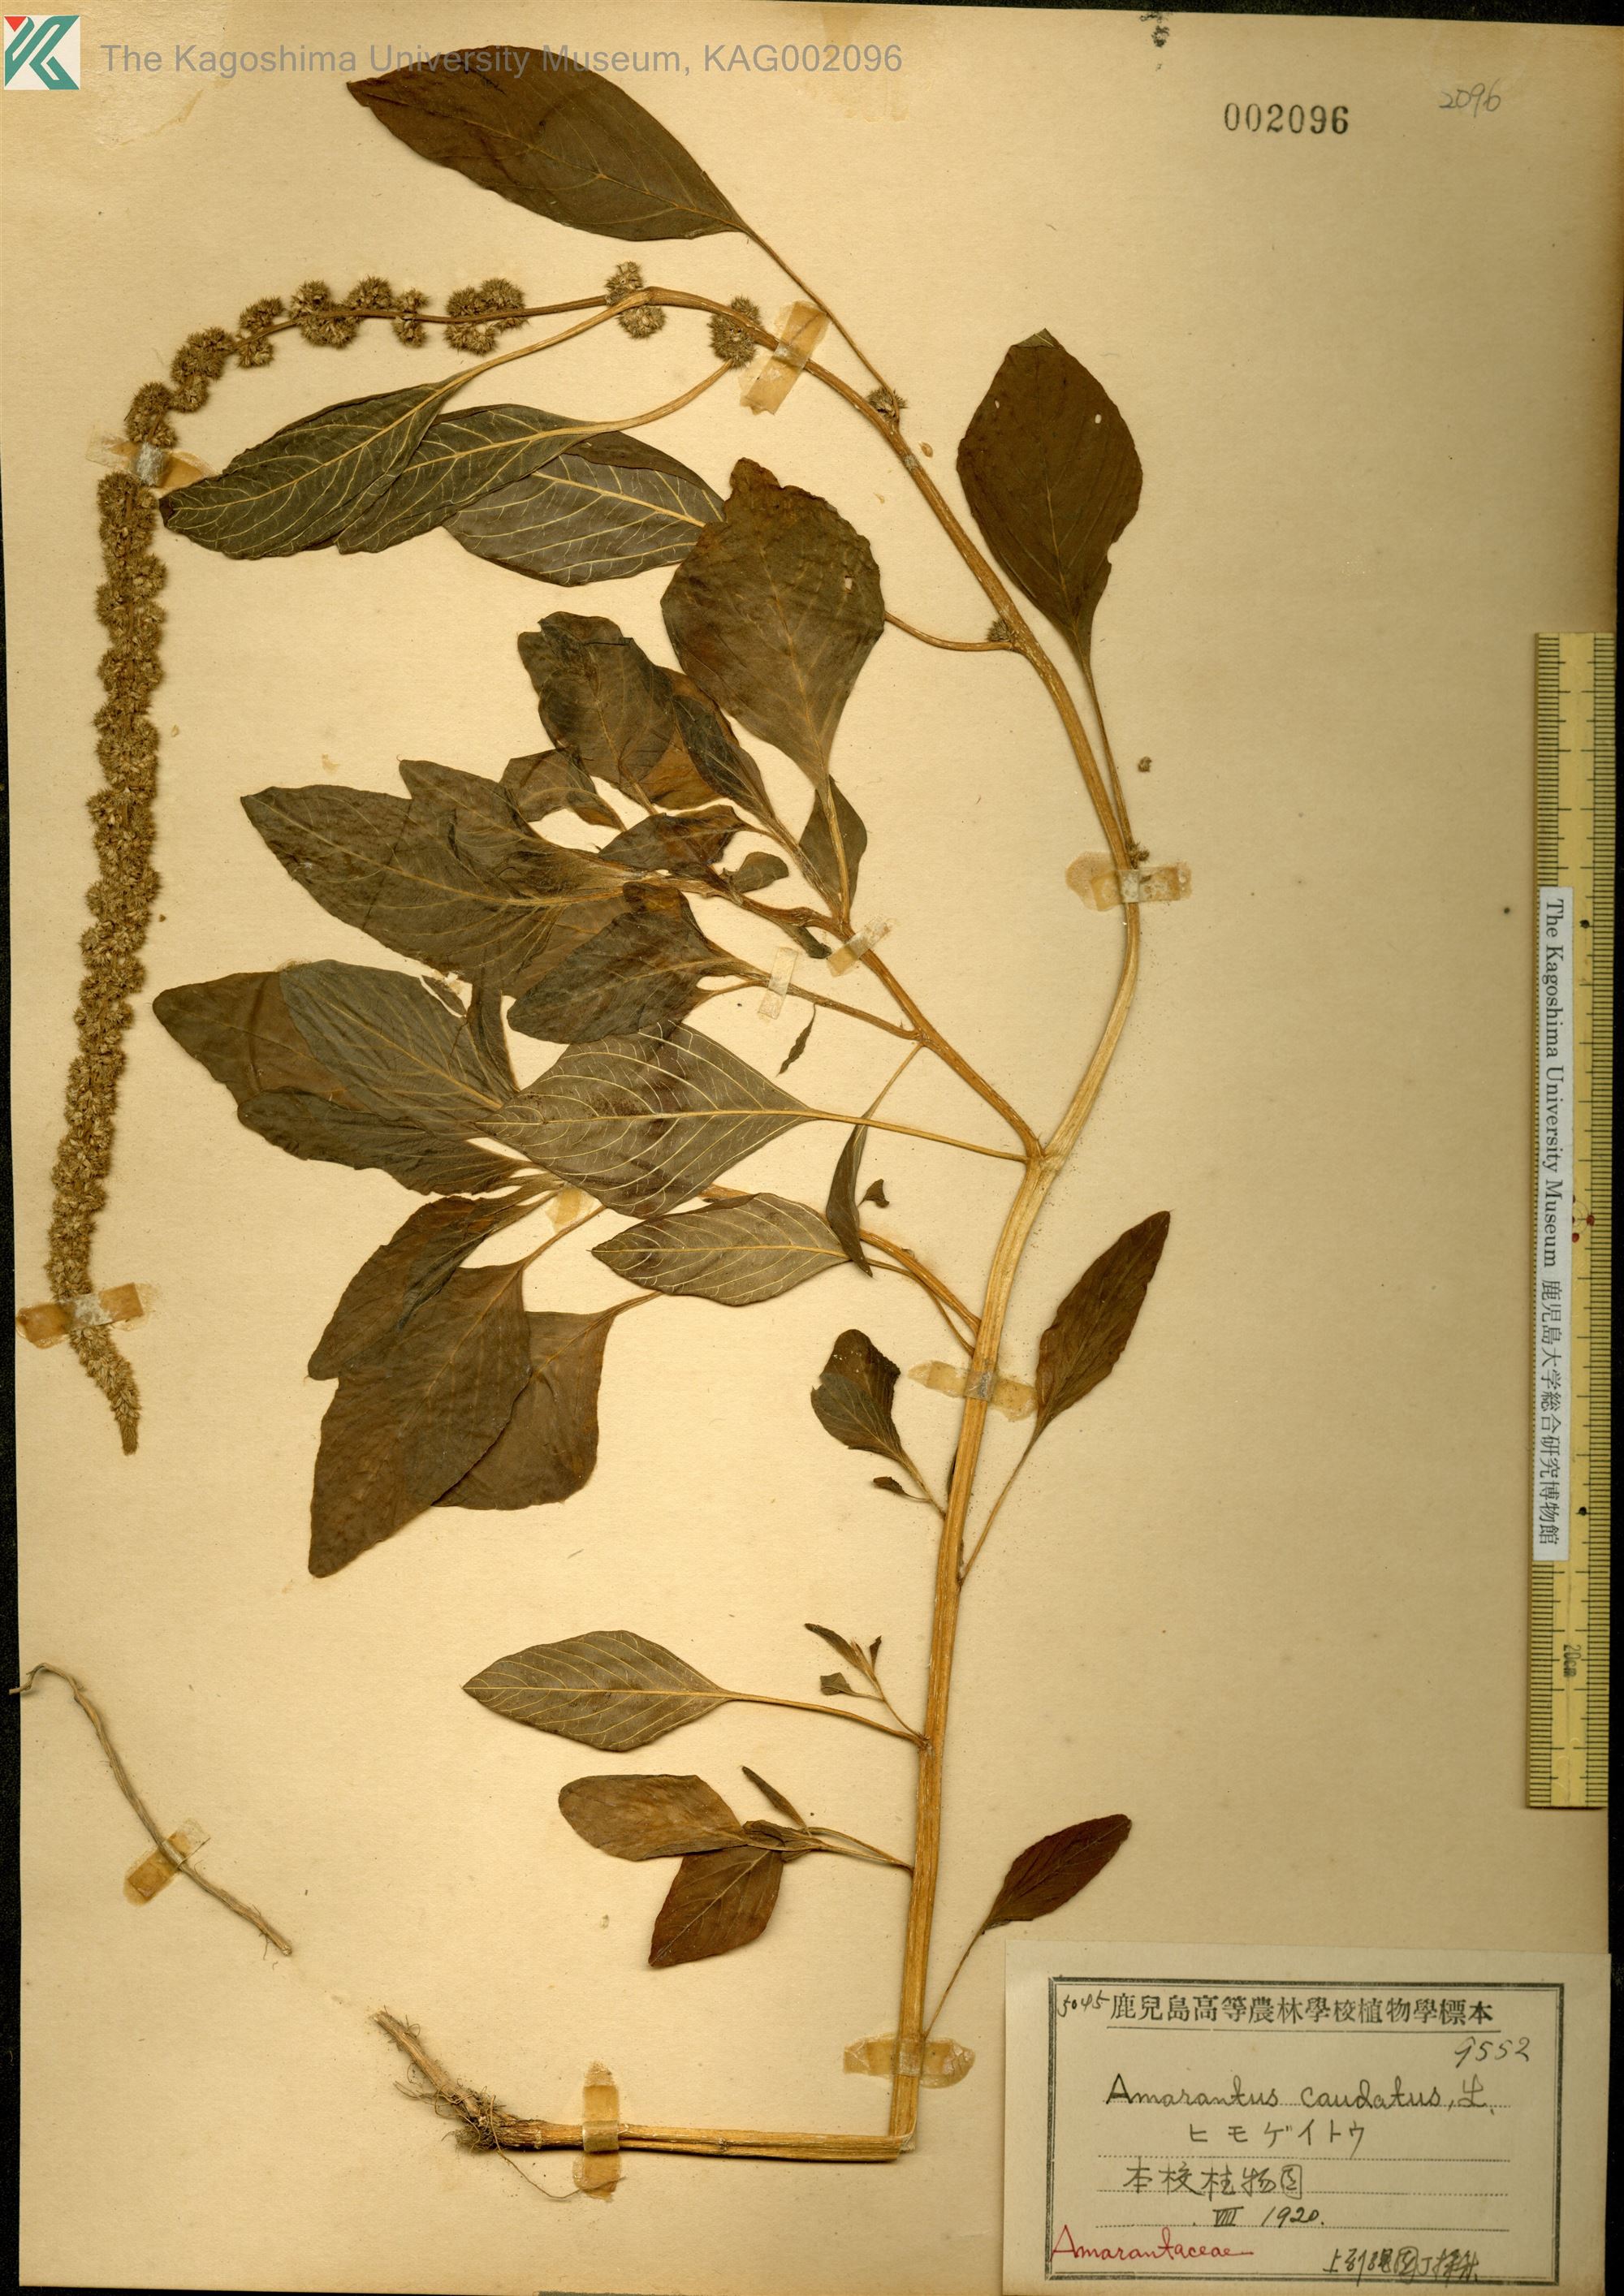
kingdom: Plantae
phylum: Tracheophyta
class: Magnoliopsida
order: Caryophyllales
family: Amaranthaceae
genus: Amaranthus
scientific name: Amaranthus caudatus
